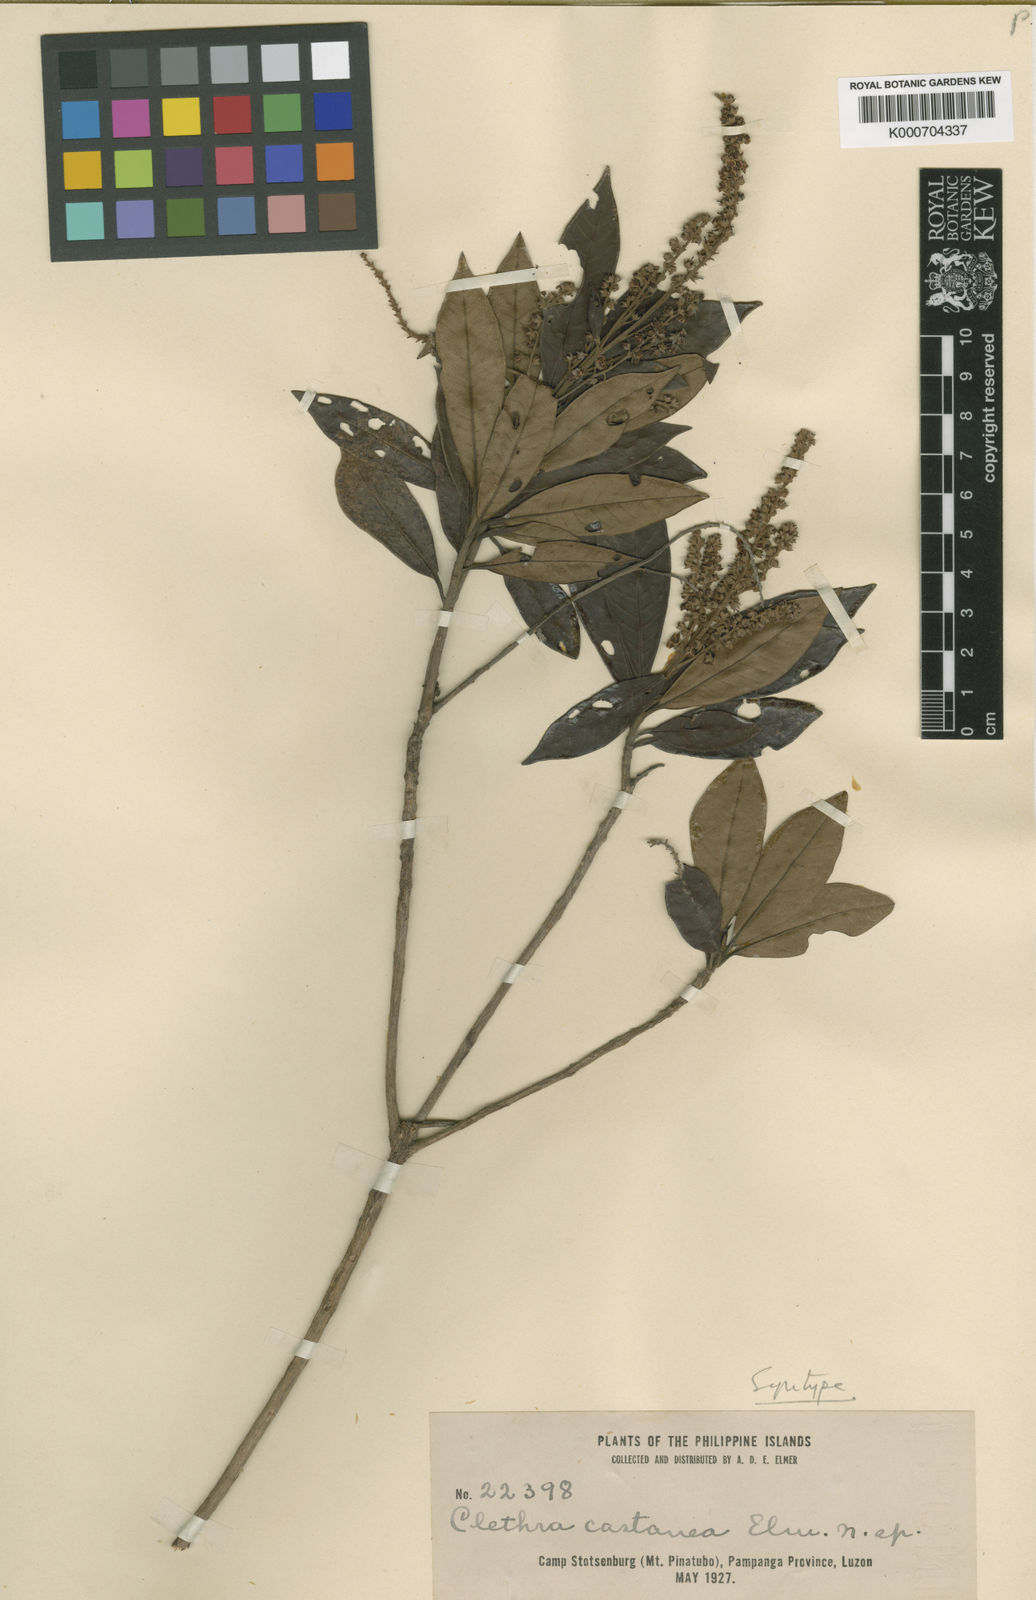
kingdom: Plantae
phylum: Tracheophyta
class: Magnoliopsida
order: Ericales
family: Clethraceae
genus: Clethra
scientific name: Clethra canescens
